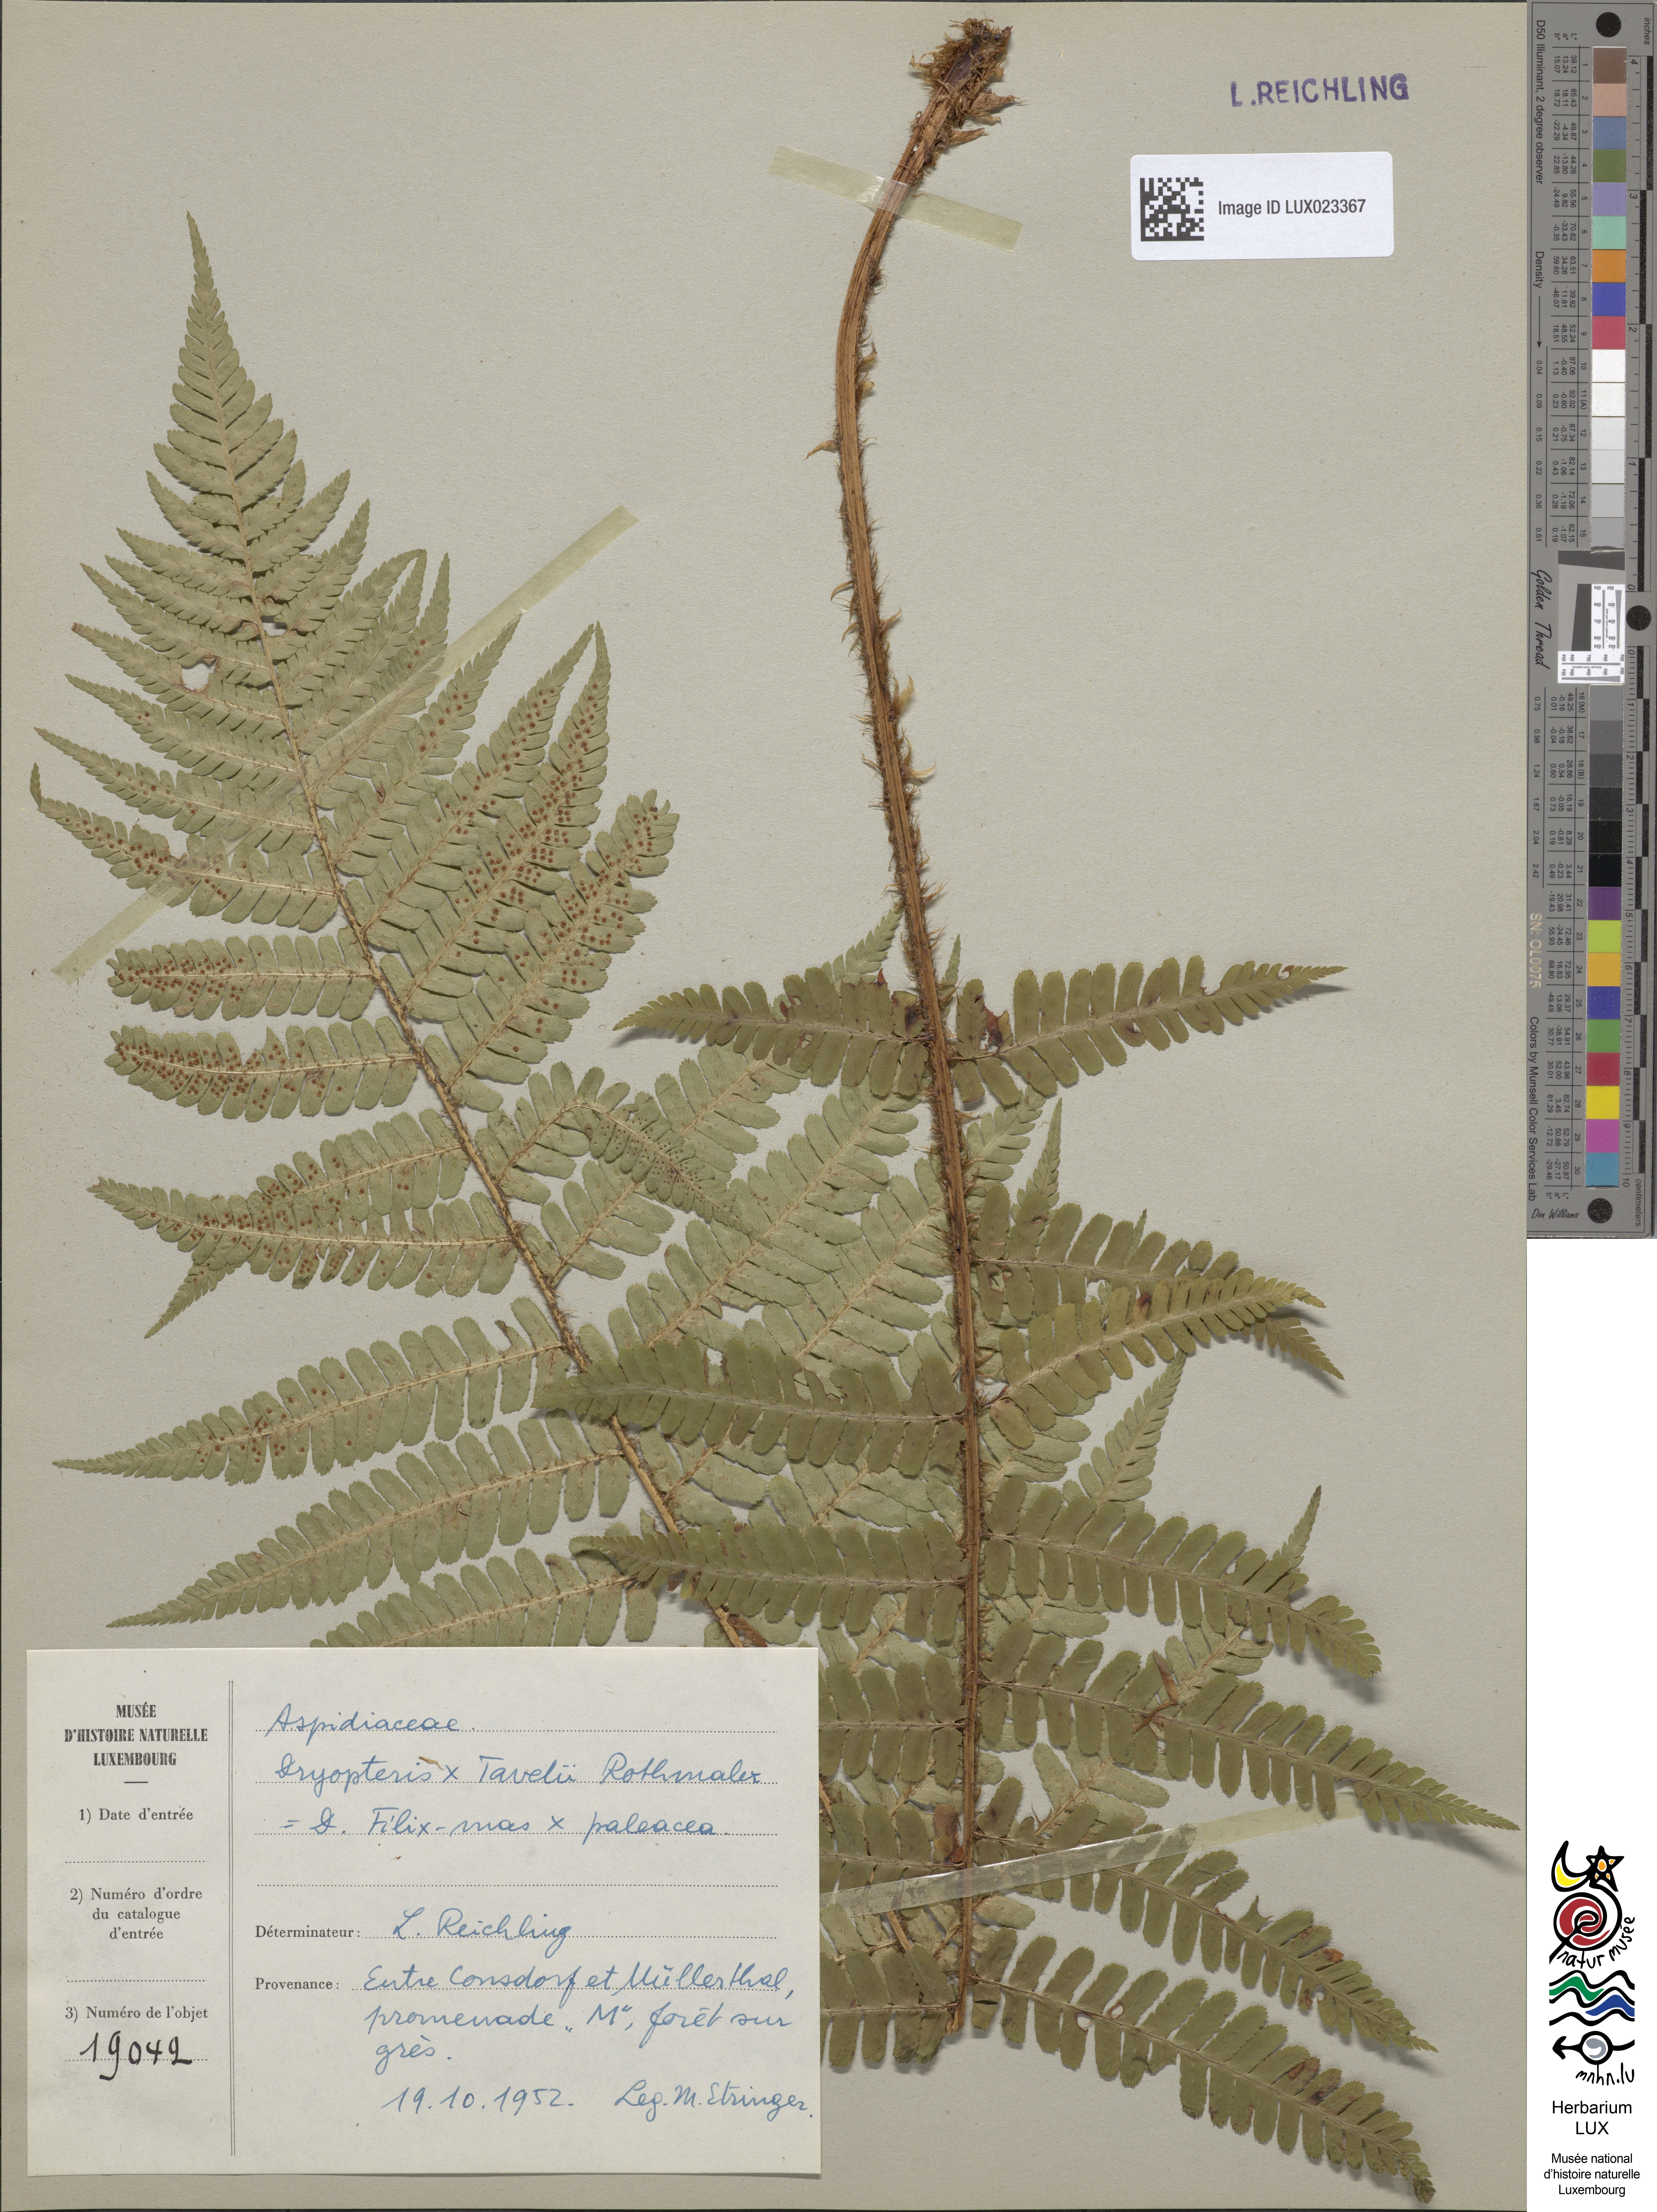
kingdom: Plantae
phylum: Tracheophyta
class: Polypodiopsida
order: Polypodiales
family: Dryopteridaceae
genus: Dryopteris
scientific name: Dryopteris borreri
